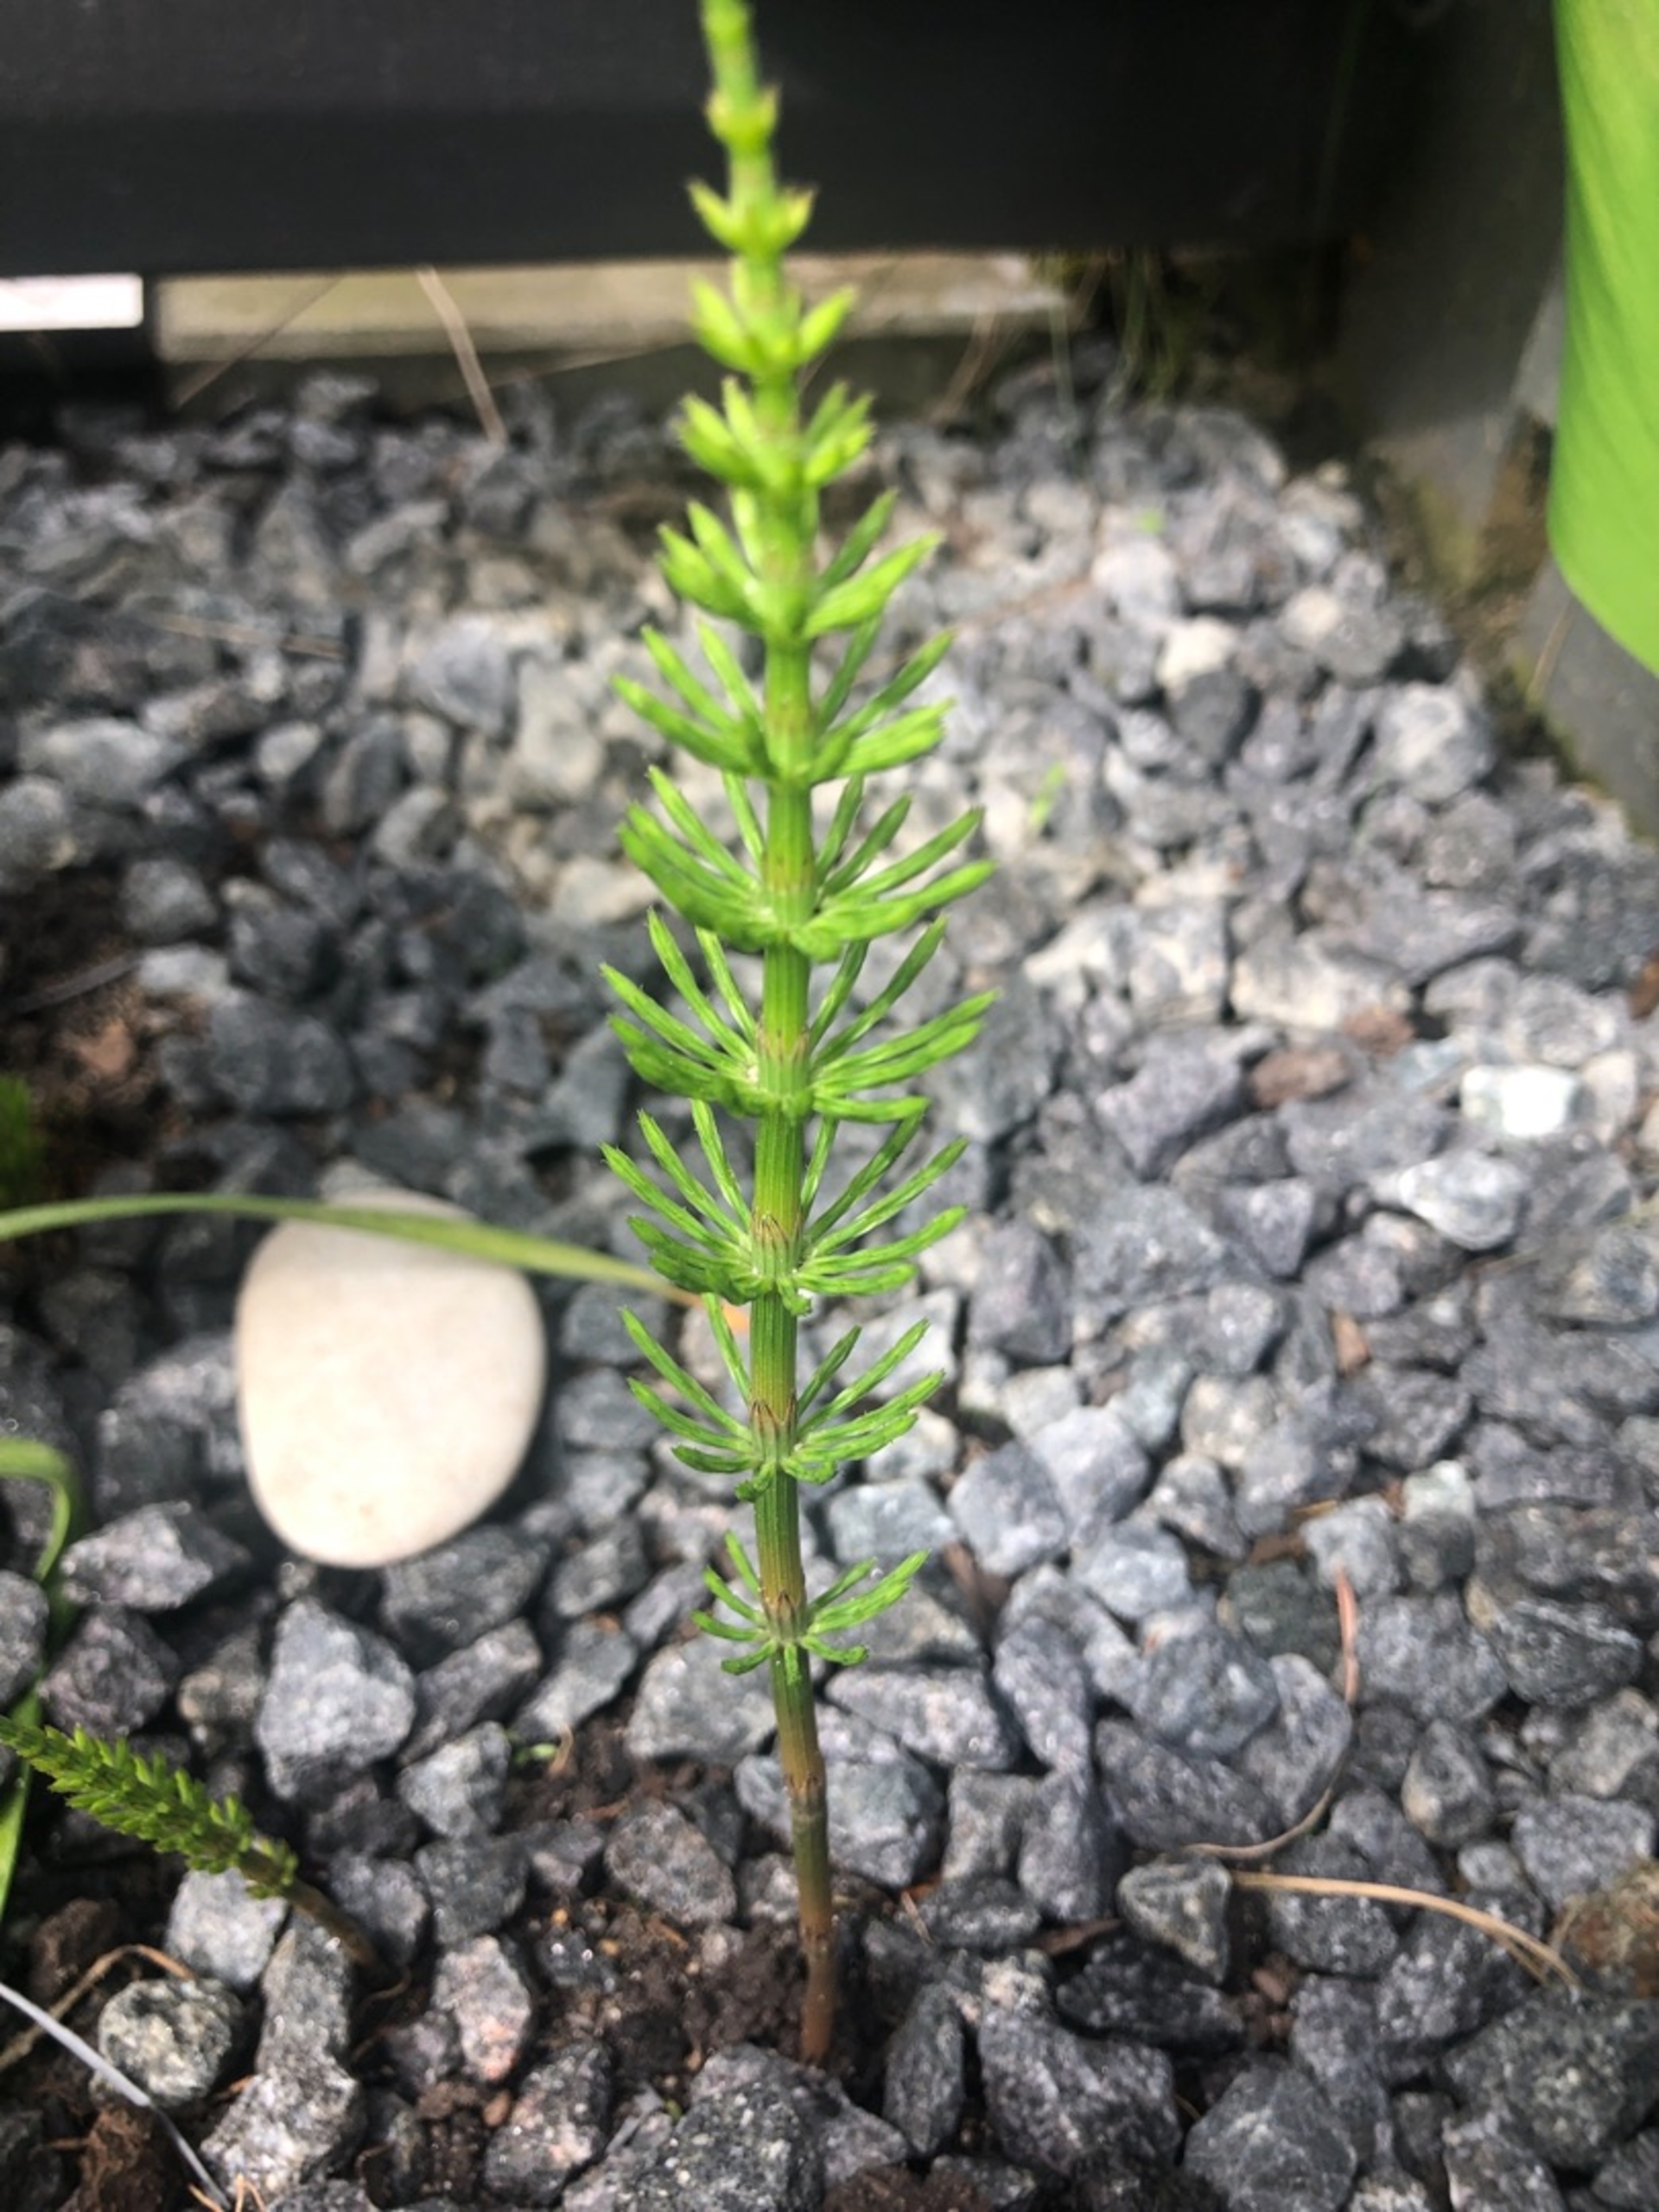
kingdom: Plantae
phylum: Tracheophyta
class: Polypodiopsida
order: Equisetales
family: Equisetaceae
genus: Equisetum
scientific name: Equisetum arvense
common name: Ager-padderok
